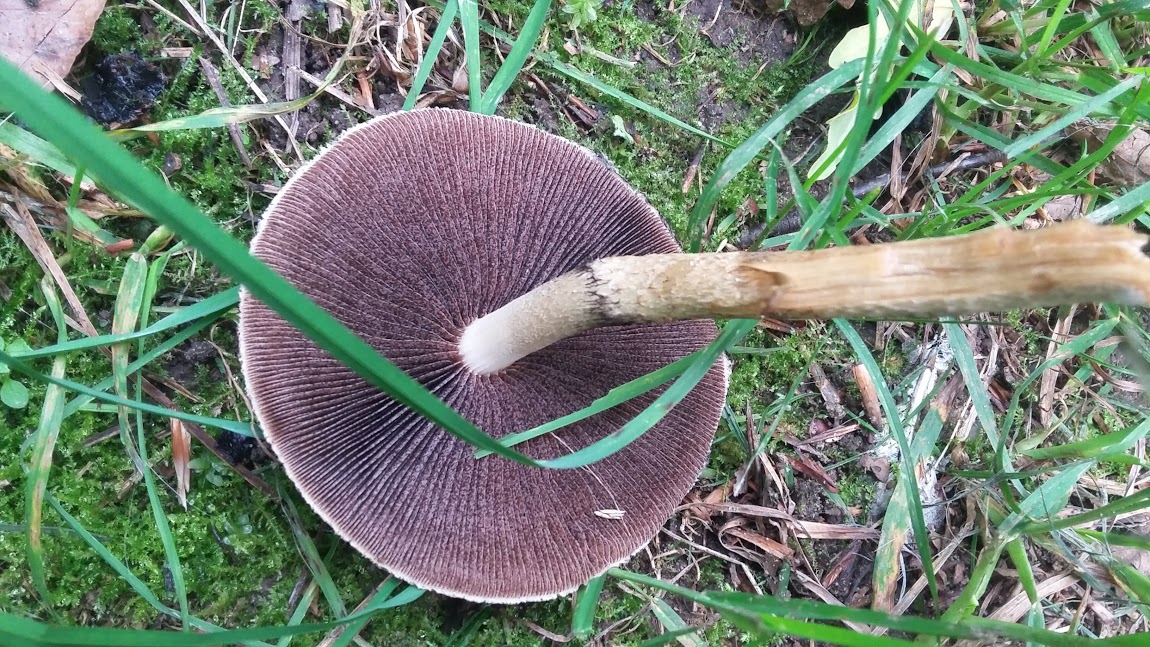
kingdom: Fungi
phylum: Basidiomycota
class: Agaricomycetes
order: Agaricales
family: Psathyrellaceae
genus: Lacrymaria
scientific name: Lacrymaria lacrymabunda
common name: grædende mørkhat
